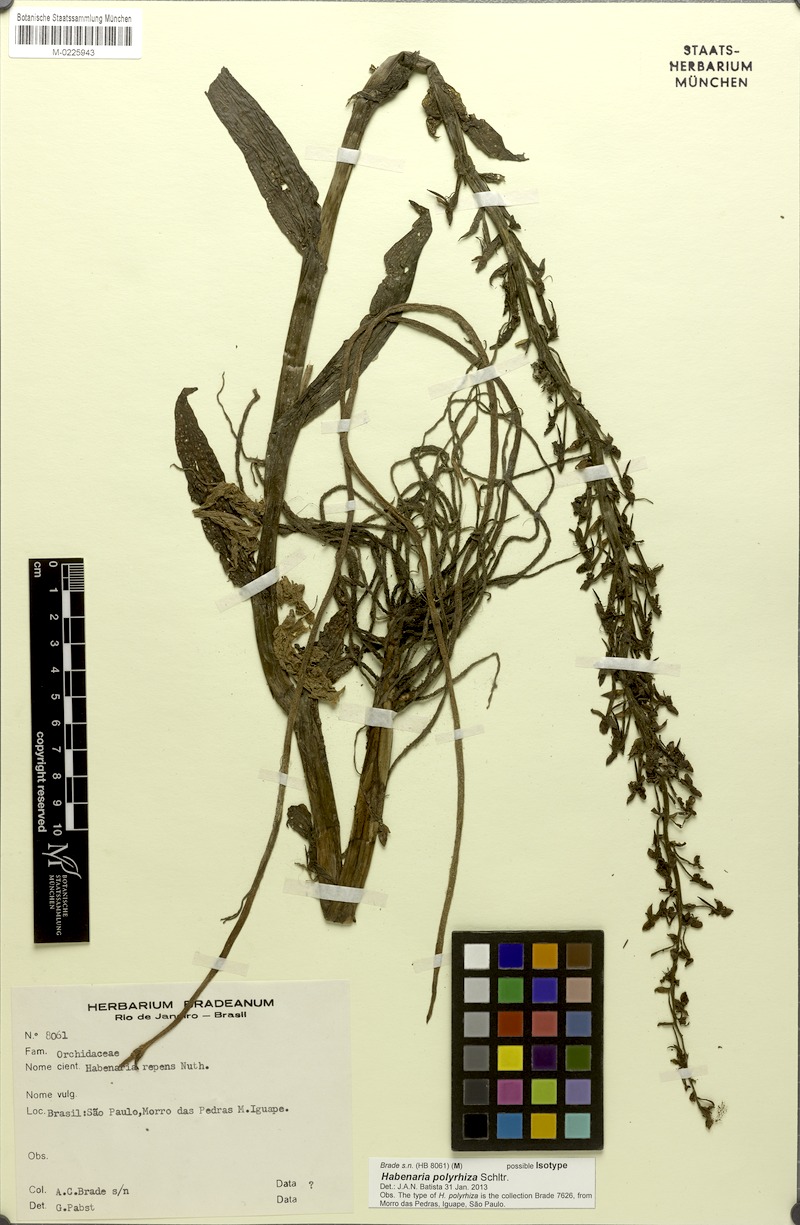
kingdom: Plantae
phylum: Tracheophyta
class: Liliopsida
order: Asparagales
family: Orchidaceae
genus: Habenaria
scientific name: Habenaria polyrhiza
